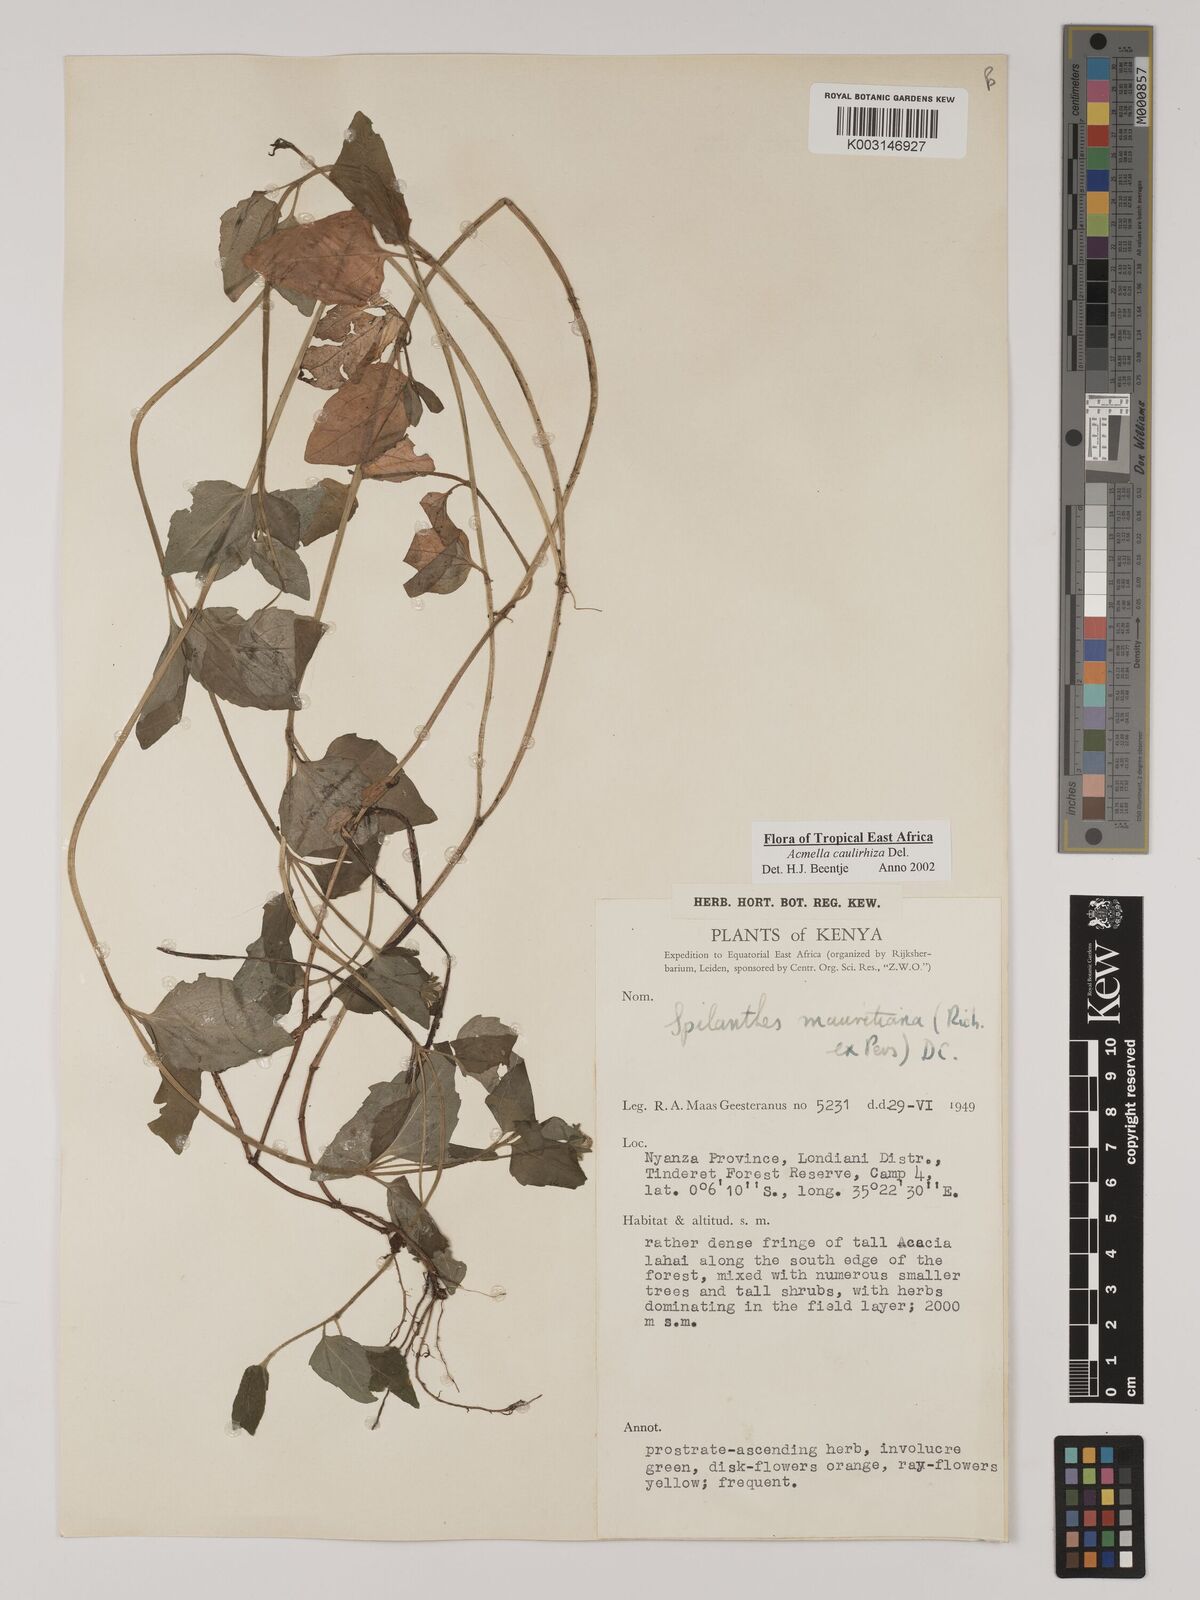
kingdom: Plantae
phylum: Tracheophyta
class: Magnoliopsida
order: Asterales
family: Asteraceae
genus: Acmella
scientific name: Acmella caulirhiza
